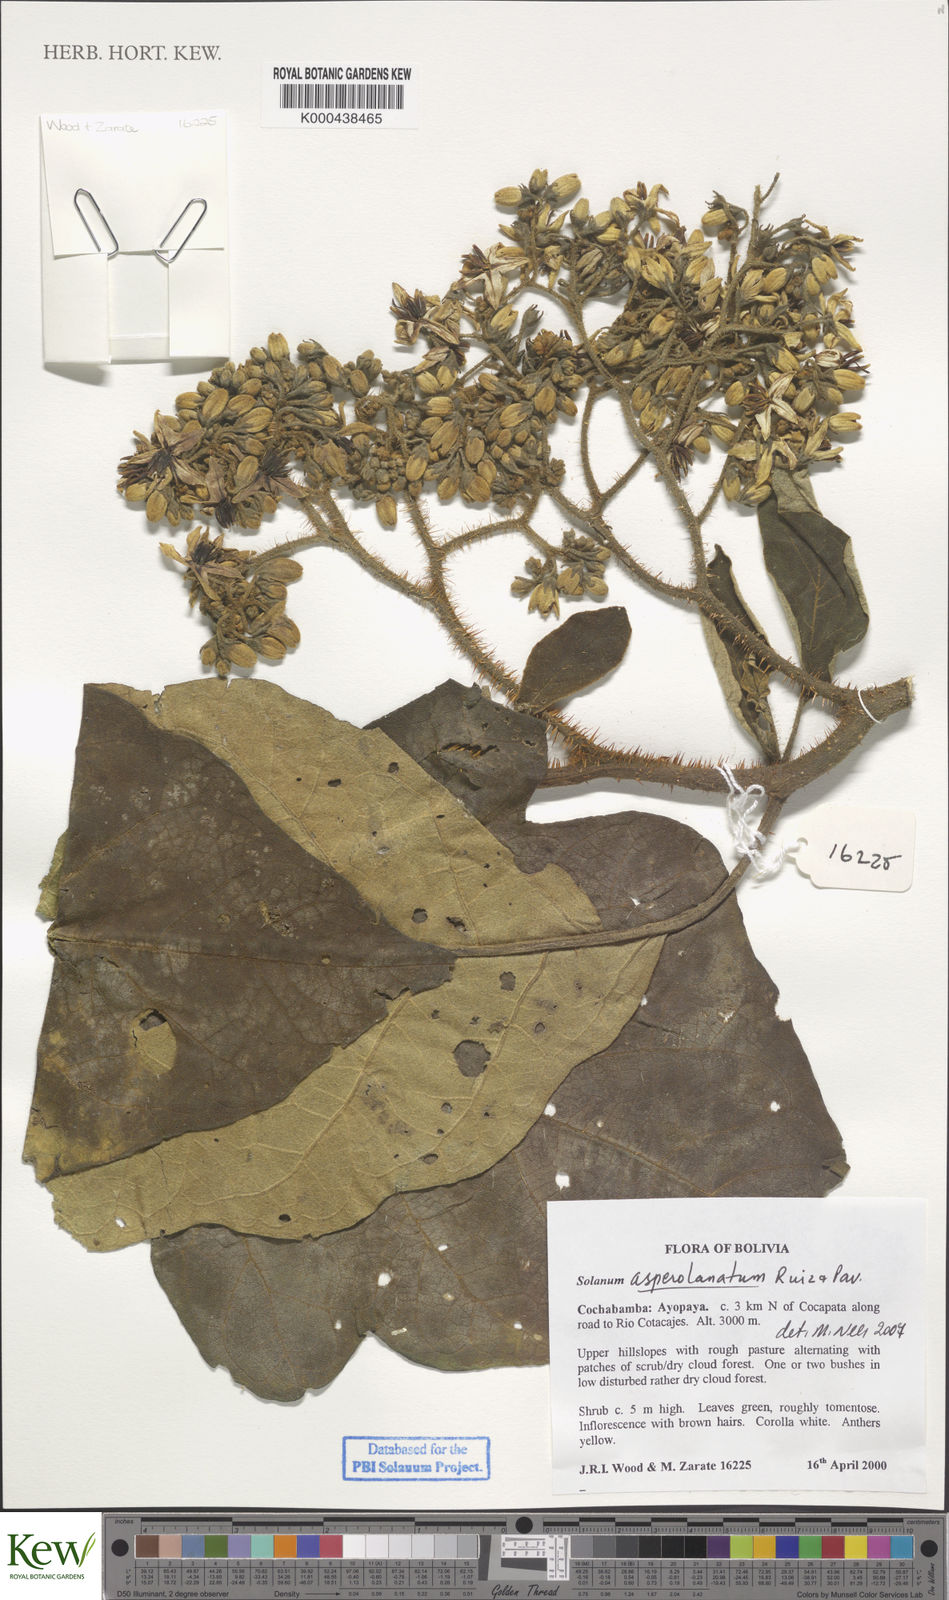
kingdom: Plantae
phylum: Tracheophyta
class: Magnoliopsida
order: Solanales
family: Solanaceae
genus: Solanum
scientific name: Solanum asperolanatum
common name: Devil's-fig
